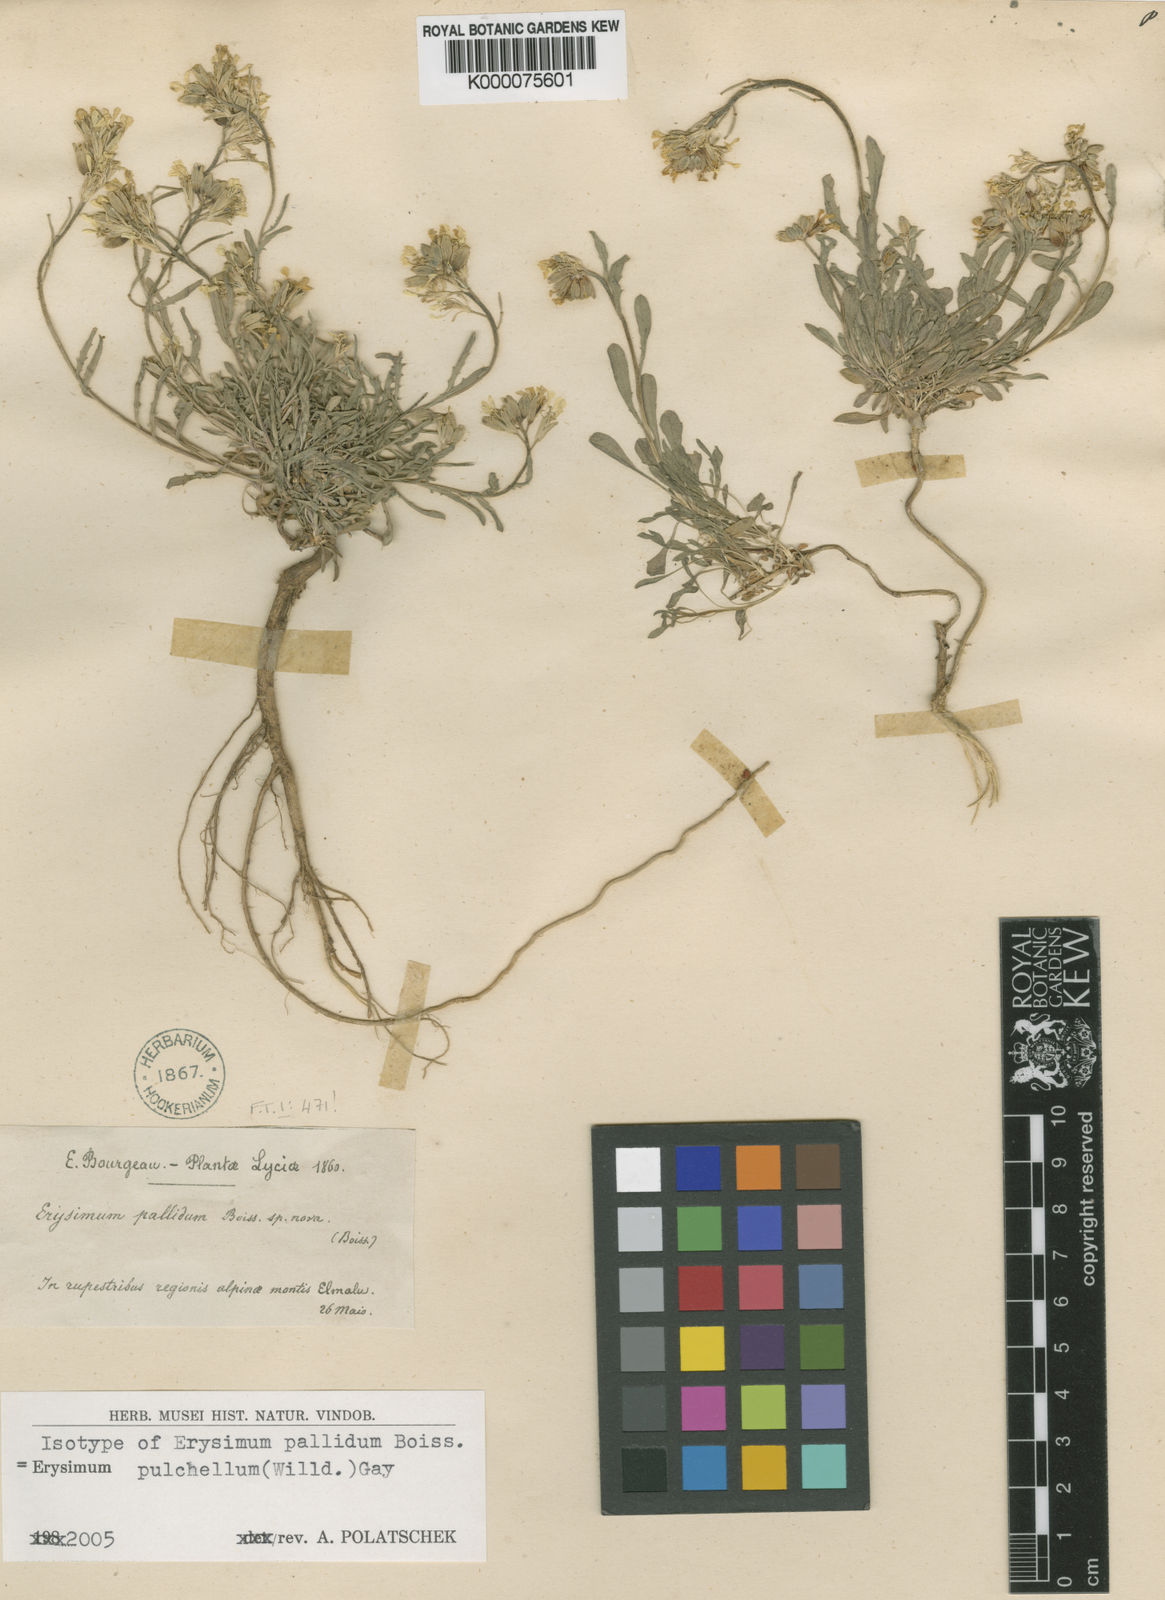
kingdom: Plantae
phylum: Tracheophyta
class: Magnoliopsida
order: Brassicales
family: Brassicaceae
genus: Erysimum
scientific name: Erysimum pulchellum
